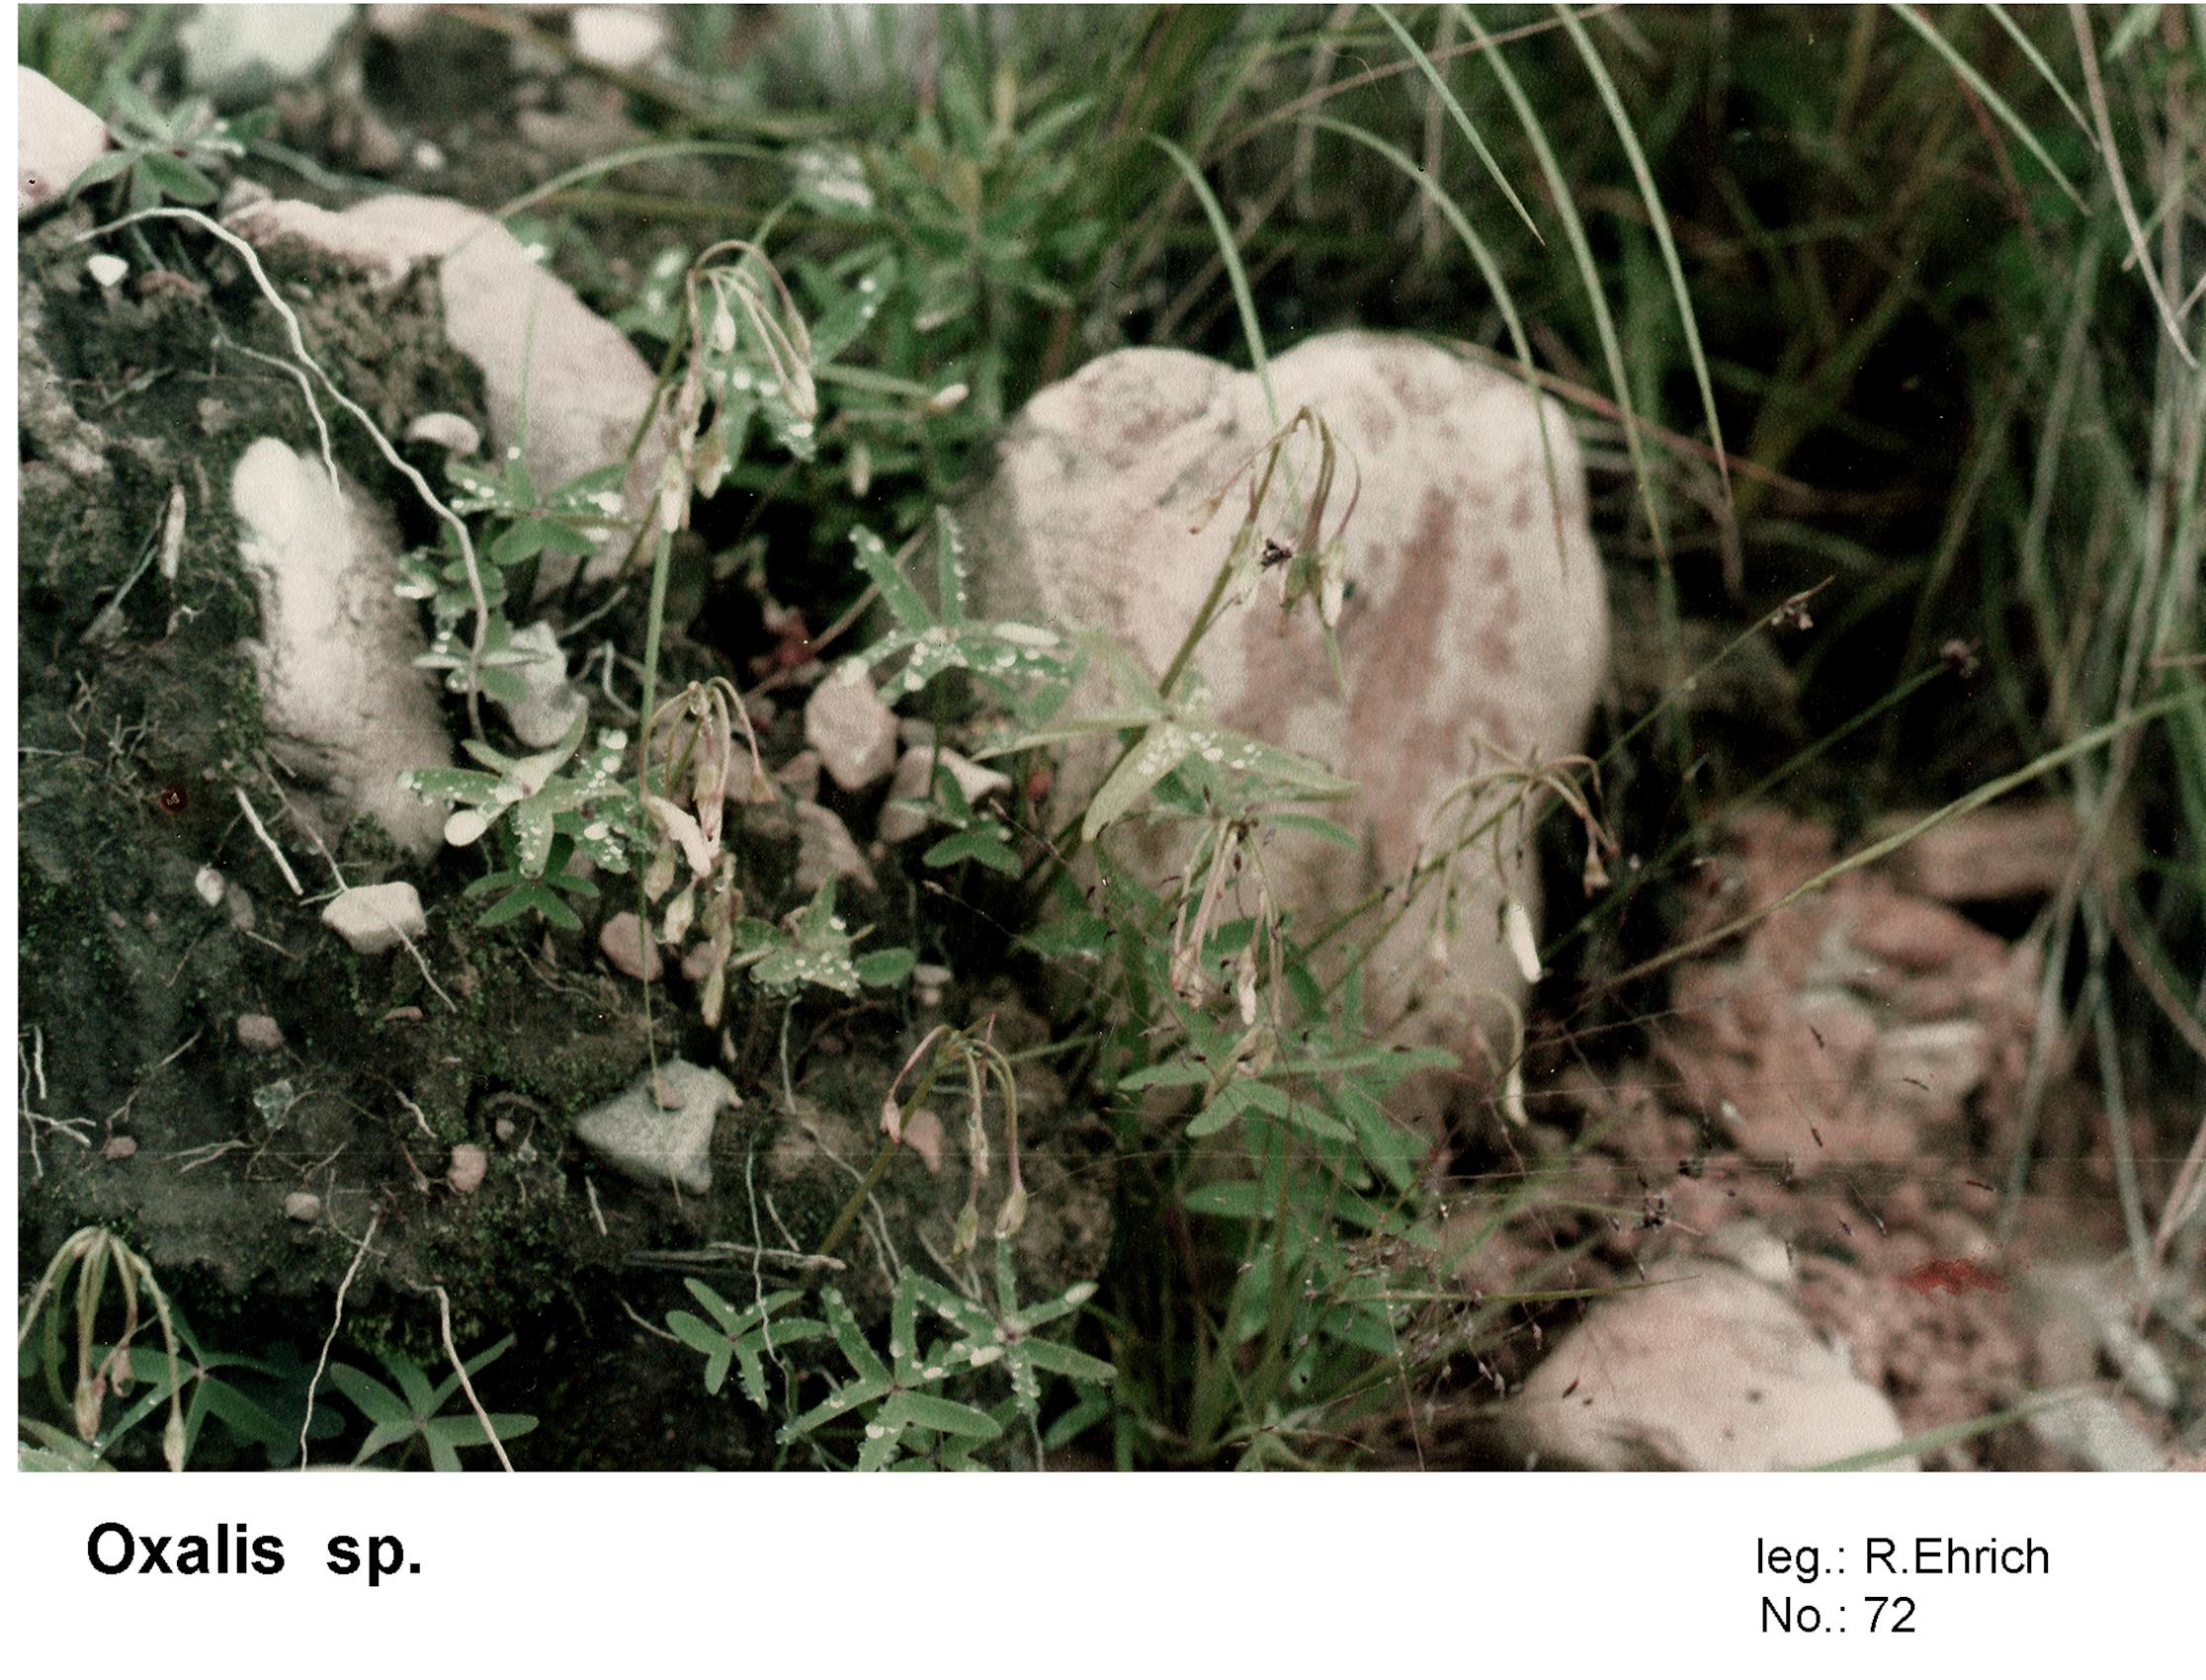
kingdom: Plantae
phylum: Tracheophyta
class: Magnoliopsida
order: Oxalidales
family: Oxalidaceae
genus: Oxalis
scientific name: Oxalis argentina
